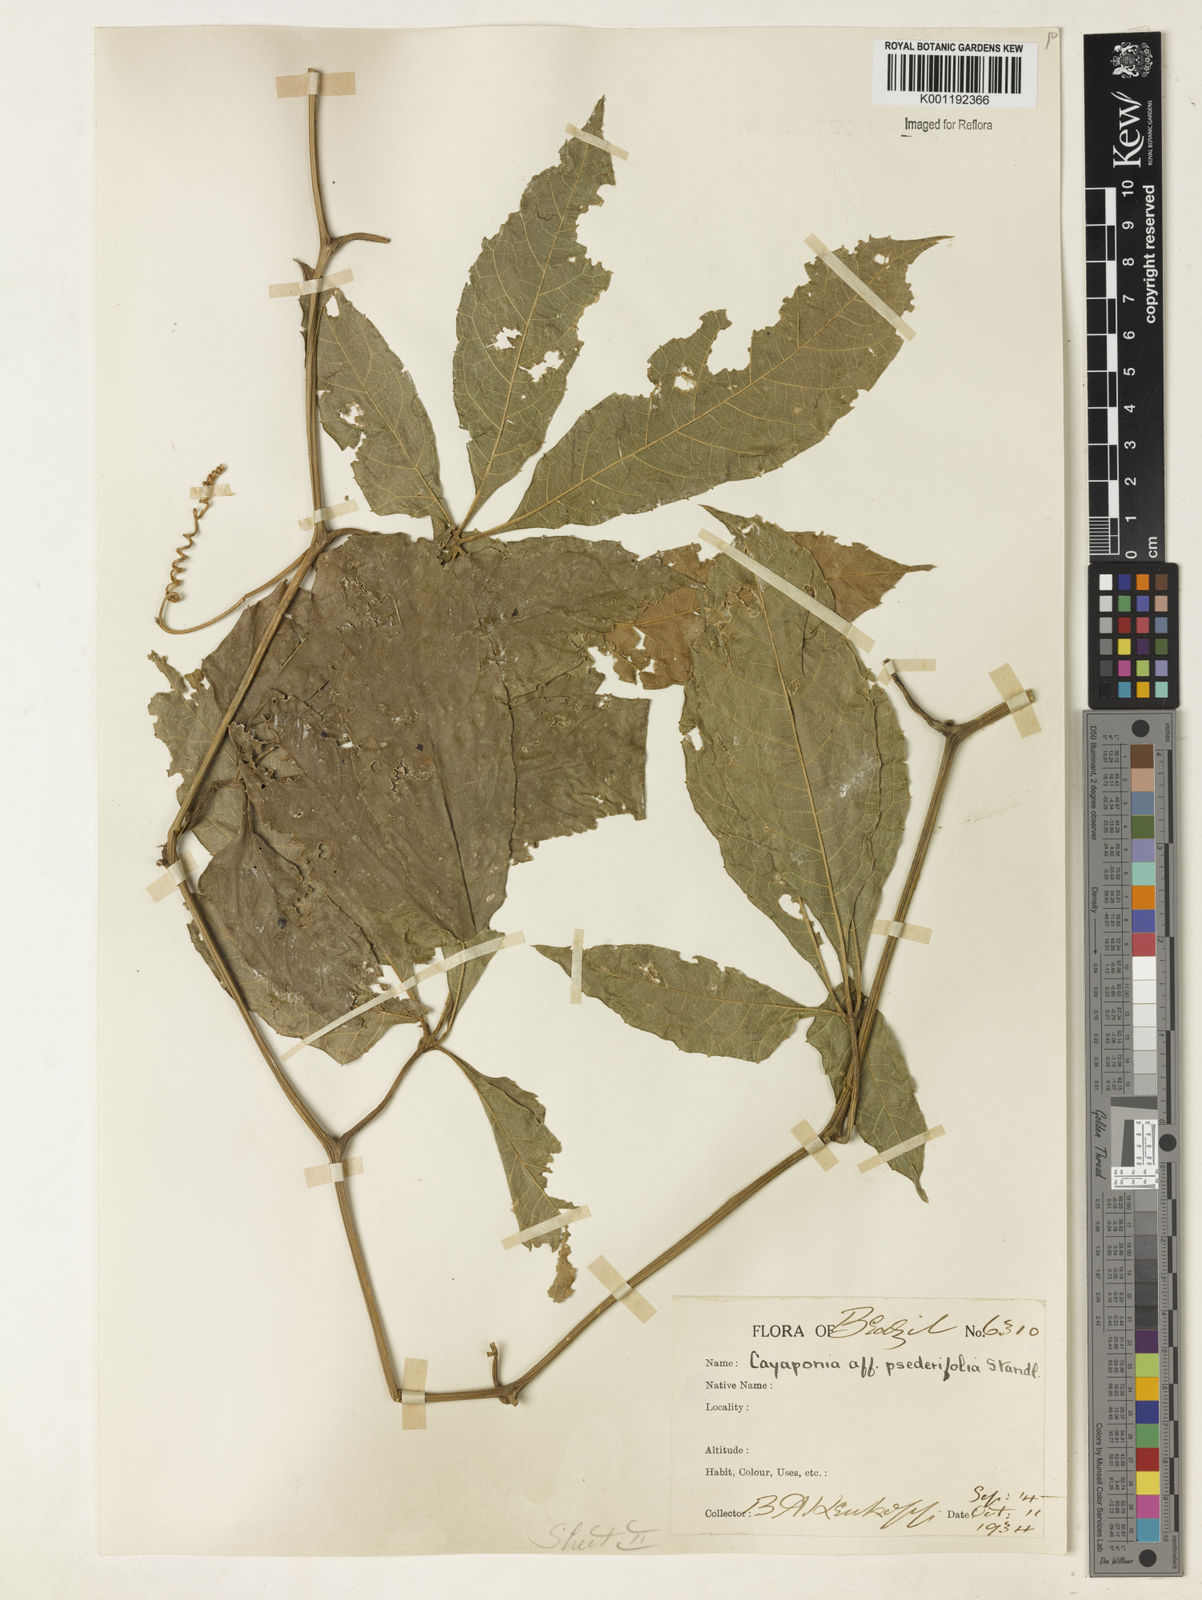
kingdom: Plantae
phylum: Tracheophyta
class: Magnoliopsida
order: Cucurbitales
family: Cucurbitaceae
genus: Cayaponia
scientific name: Cayaponia tubulosa
